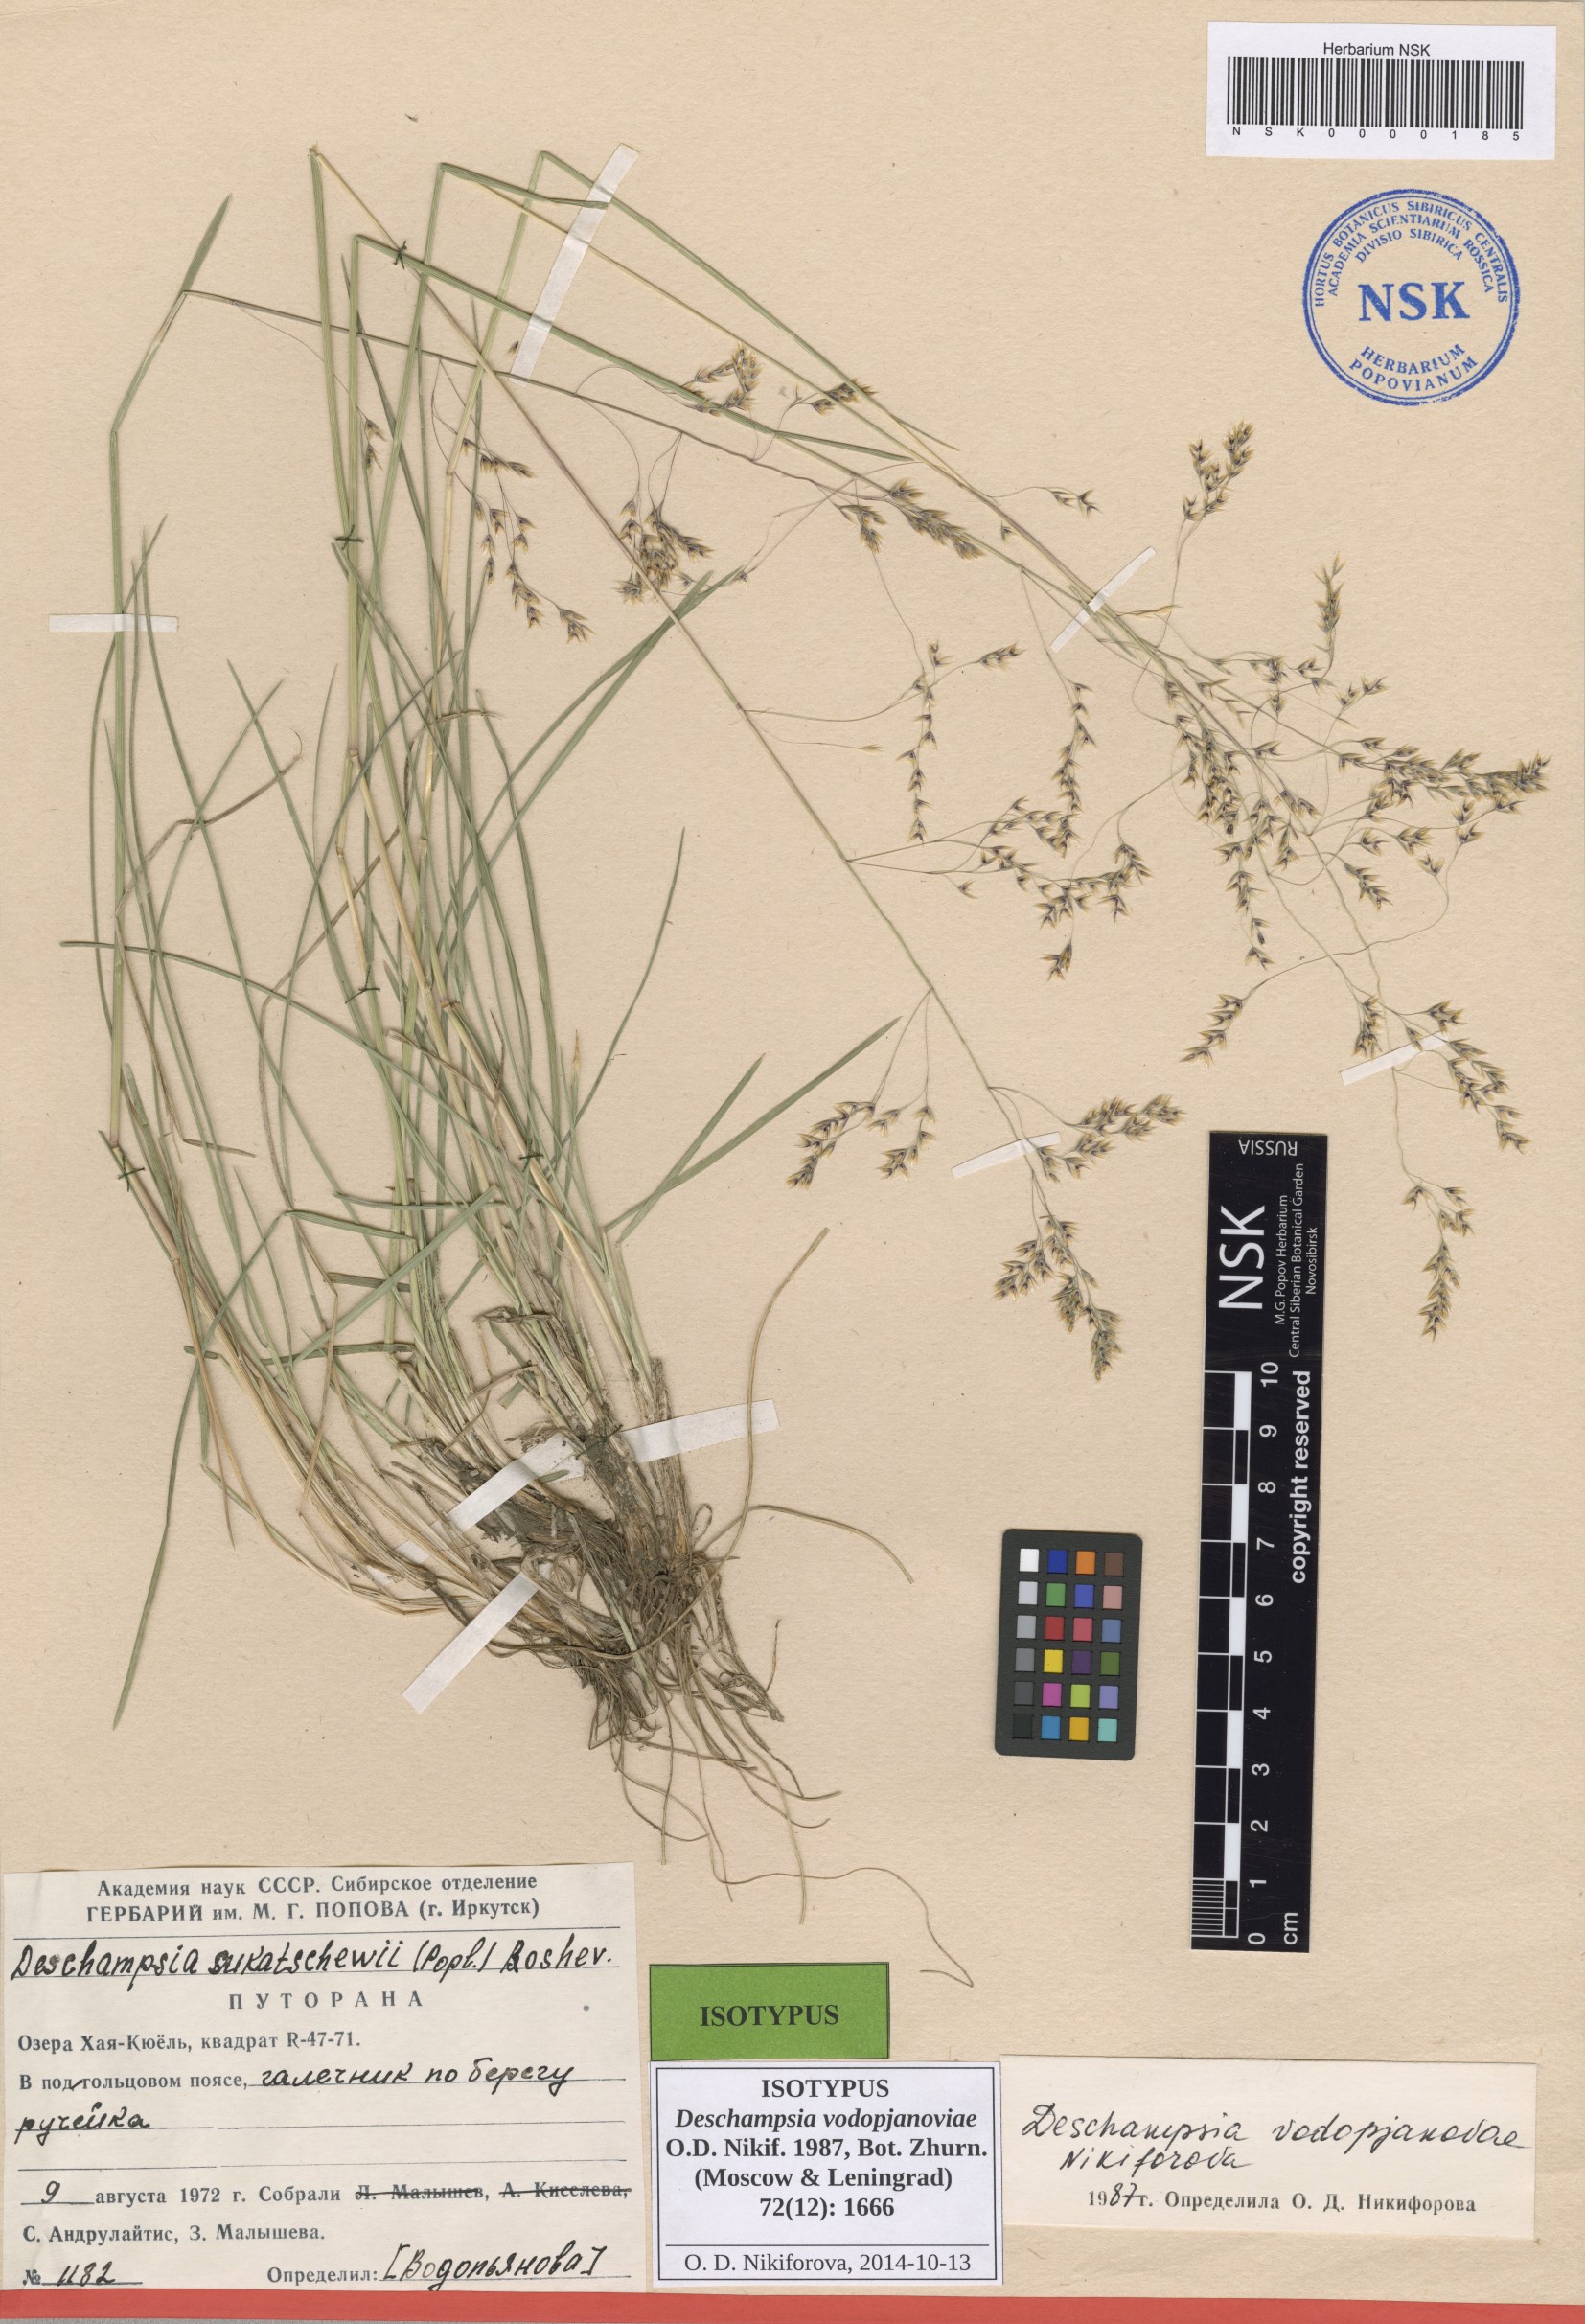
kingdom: Plantae
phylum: Tracheophyta
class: Liliopsida
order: Poales
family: Poaceae
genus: Deschampsia
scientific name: Deschampsia cespitosa
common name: Tufted hair-grass
